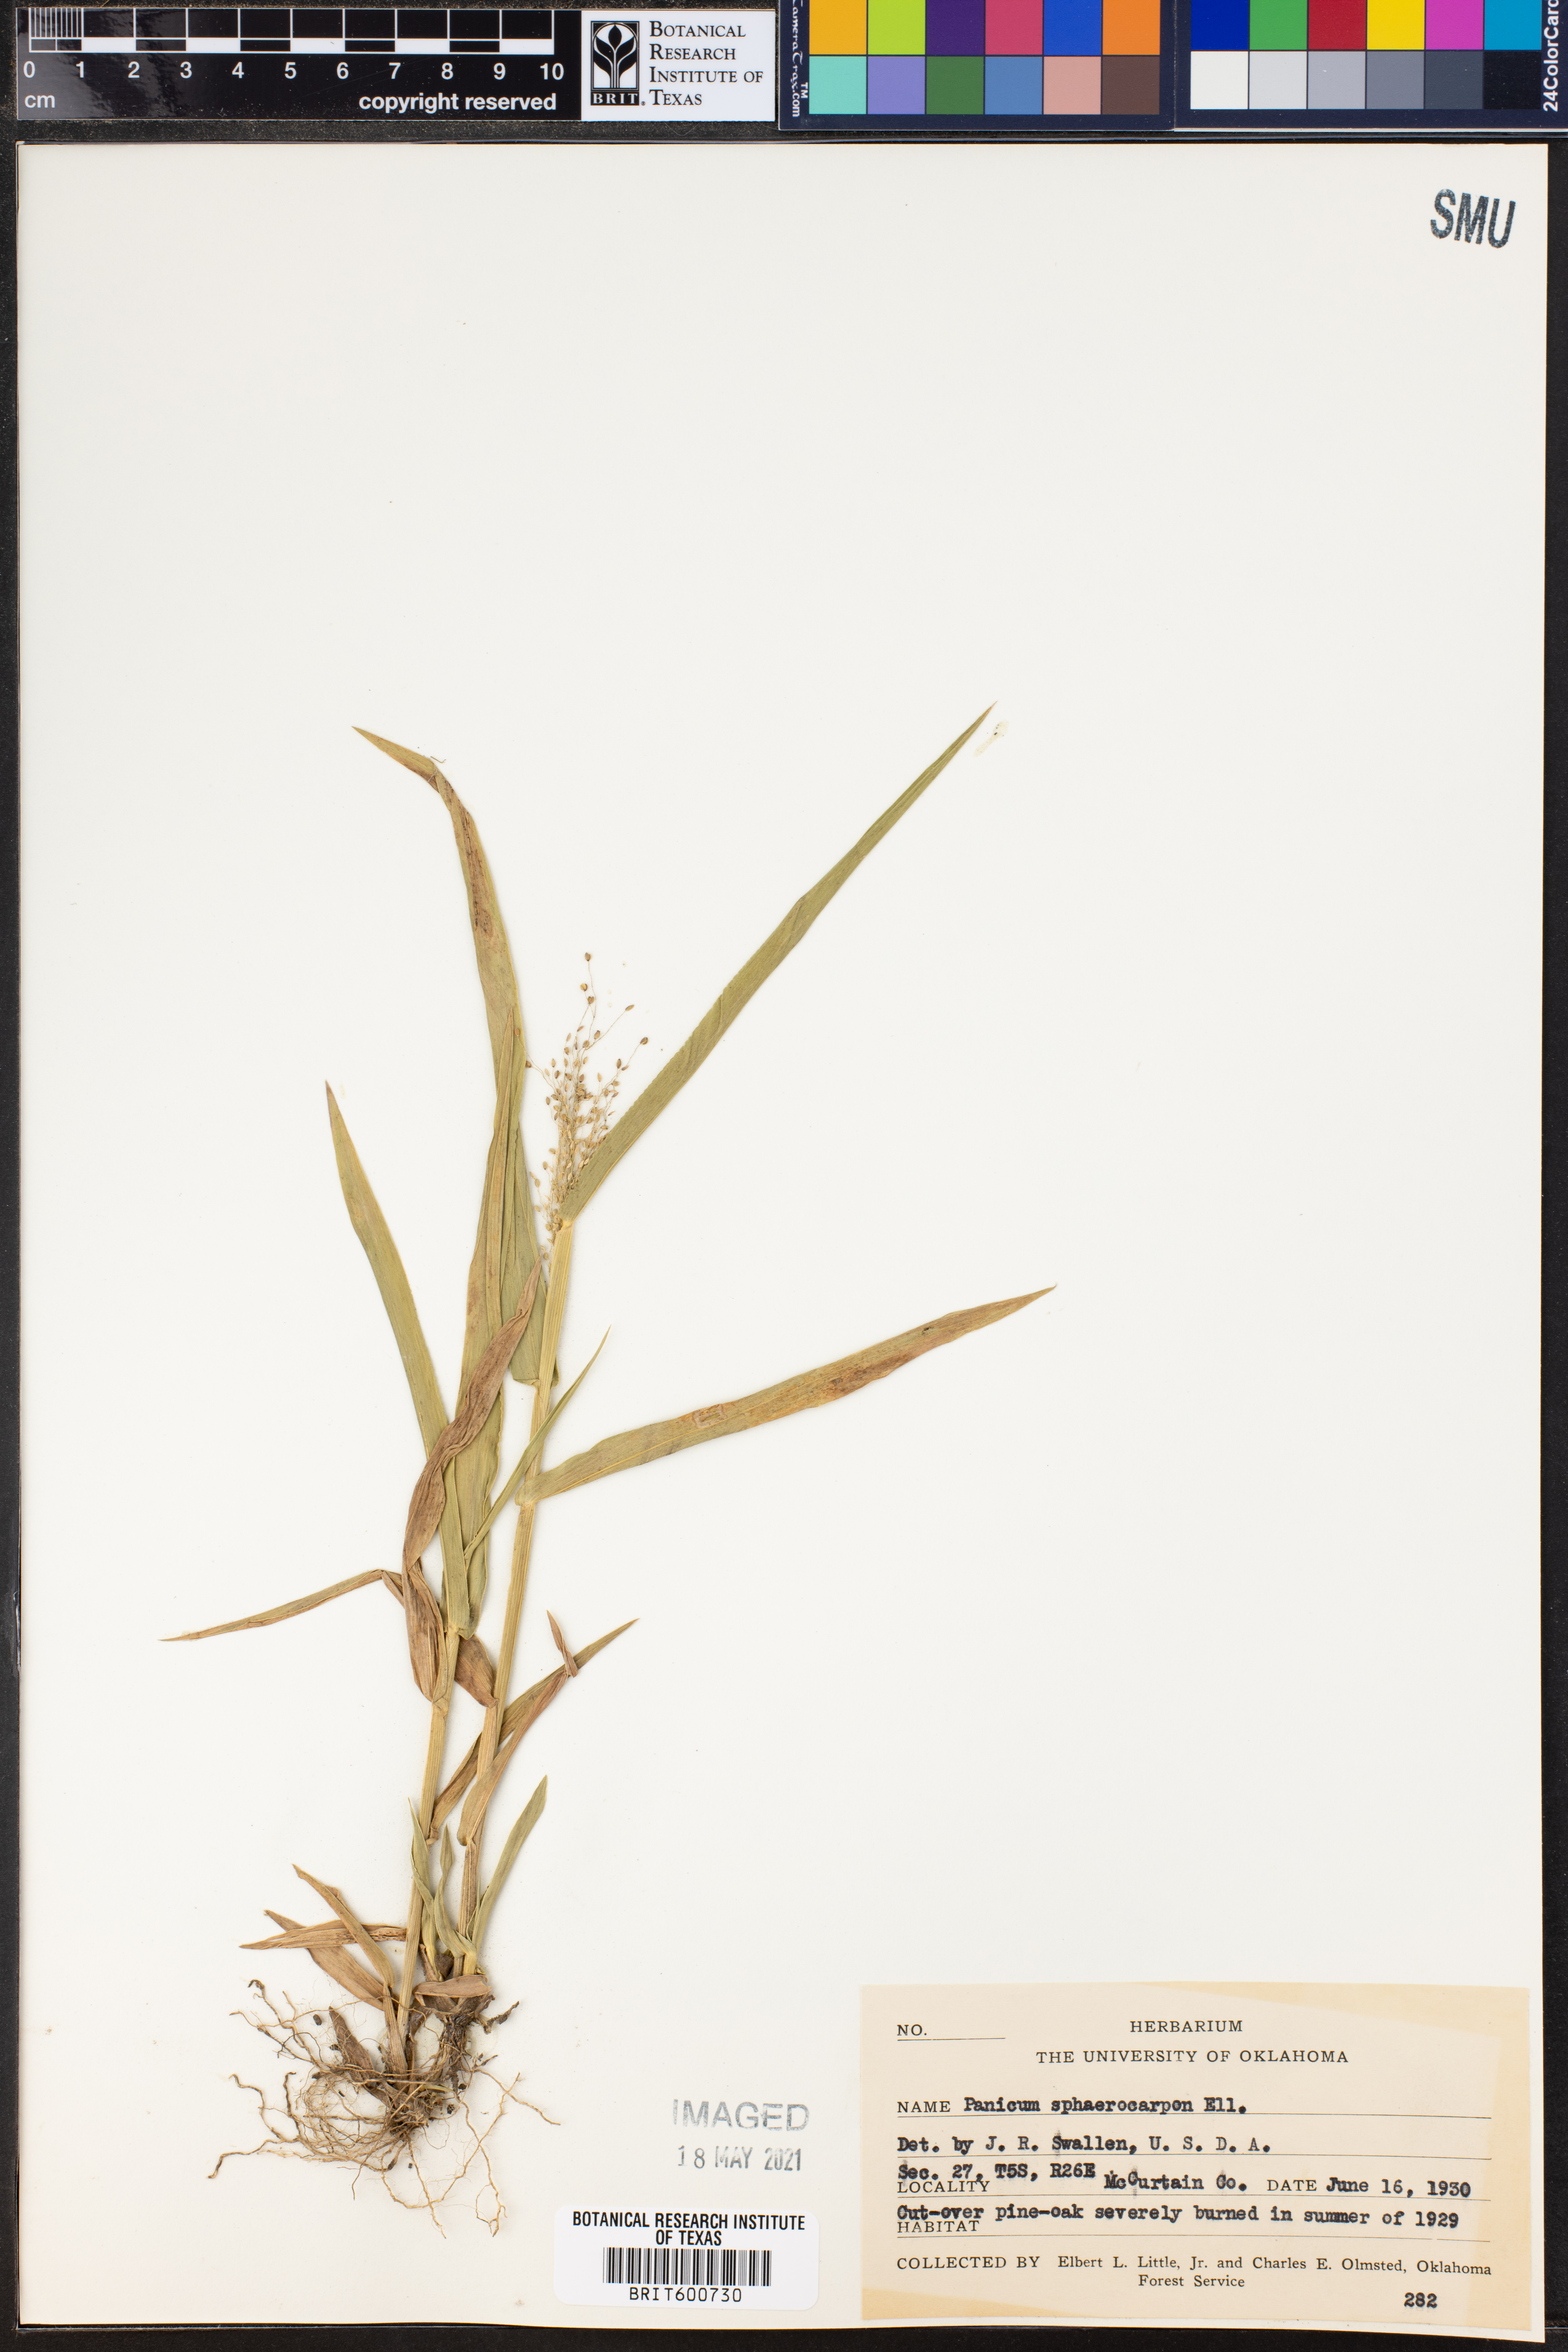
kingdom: Plantae
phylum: Tracheophyta
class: Liliopsida
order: Poales
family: Poaceae
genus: Dichanthelium
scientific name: Dichanthelium sphaerocarpon
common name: Round-fruited panicgrass
